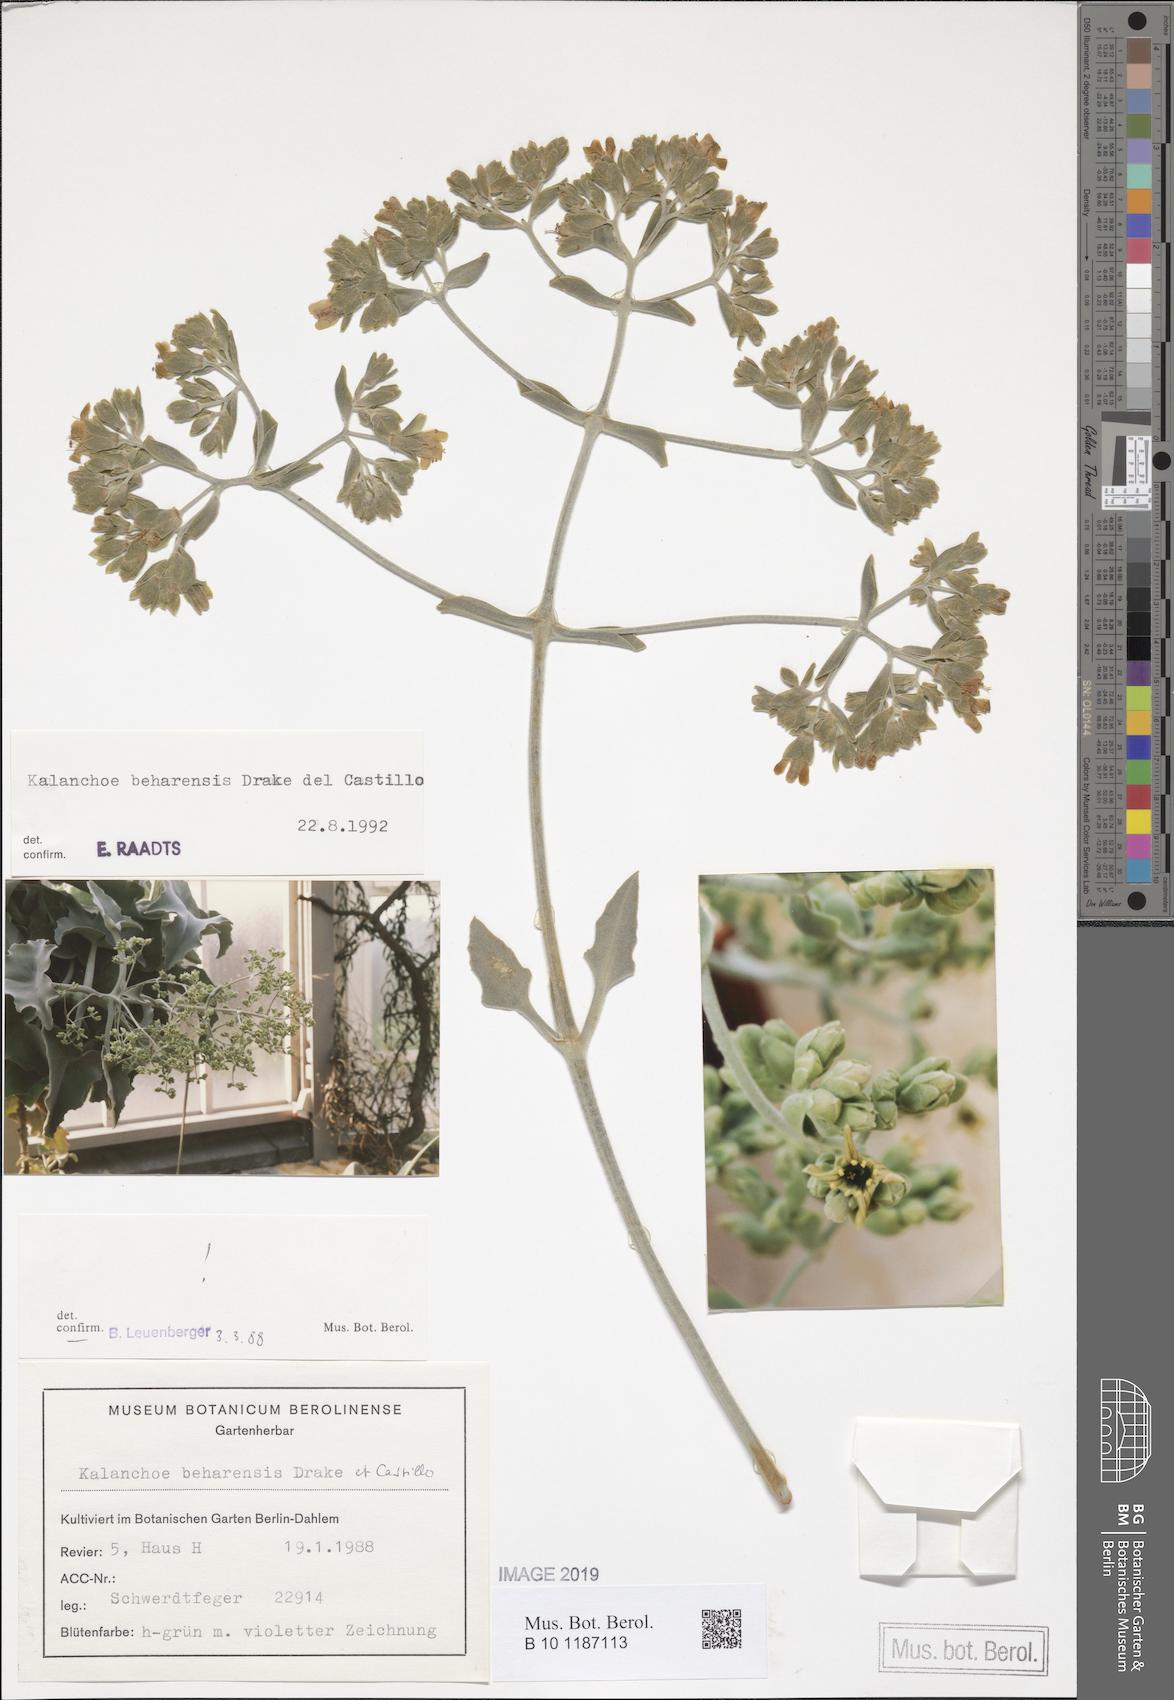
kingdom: Plantae
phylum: Tracheophyta
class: Magnoliopsida
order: Saxifragales
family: Crassulaceae
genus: Kalanchoe
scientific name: Kalanchoe beharensis
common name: Velvet leaf
